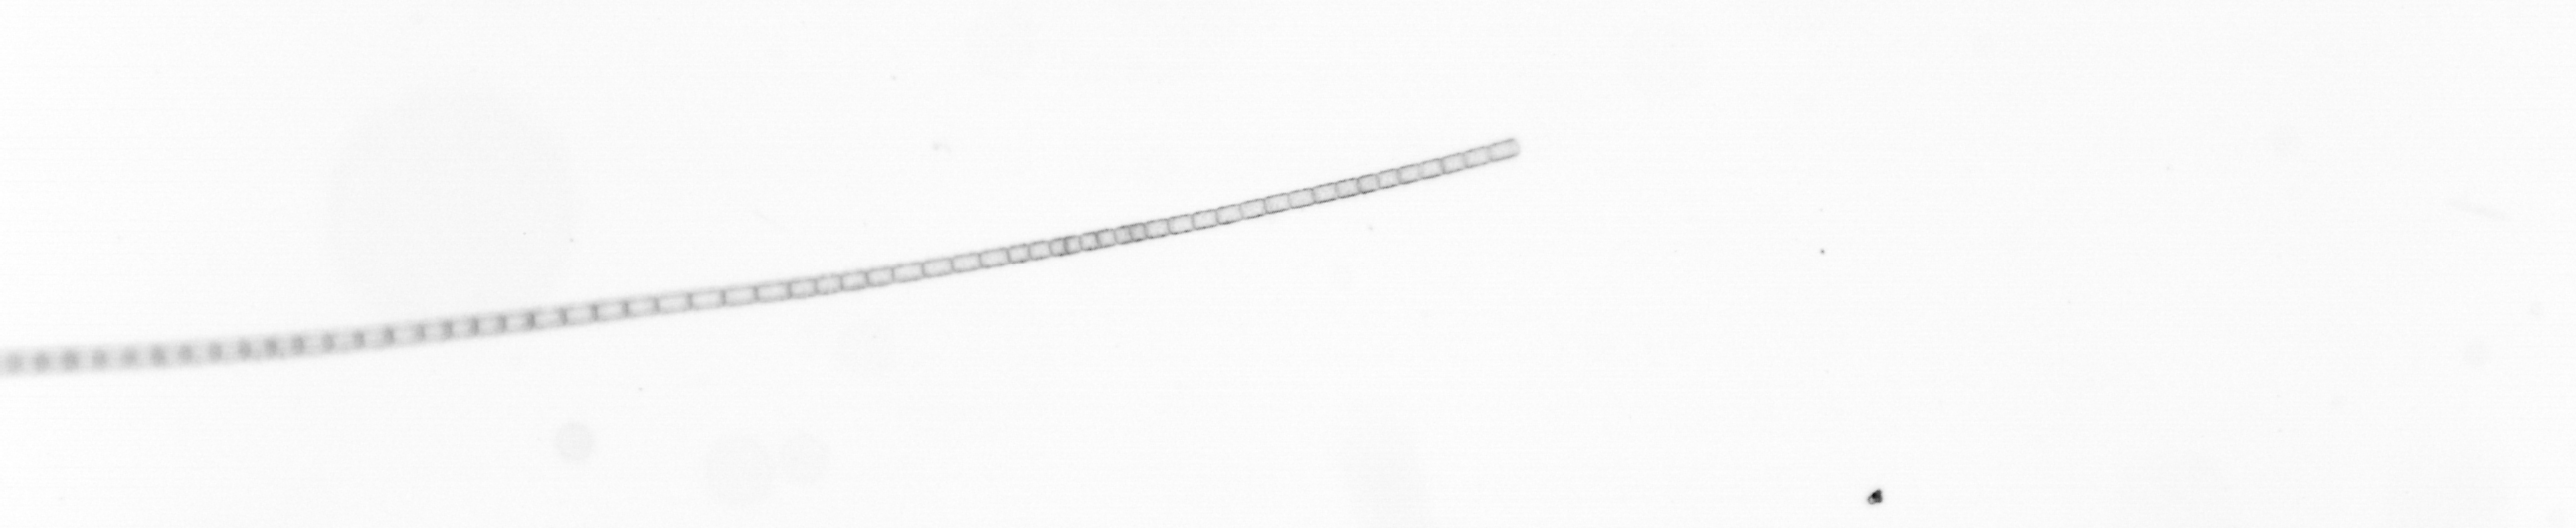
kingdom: Chromista
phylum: Ochrophyta
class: Bacillariophyceae
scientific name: Bacillariophyceae
